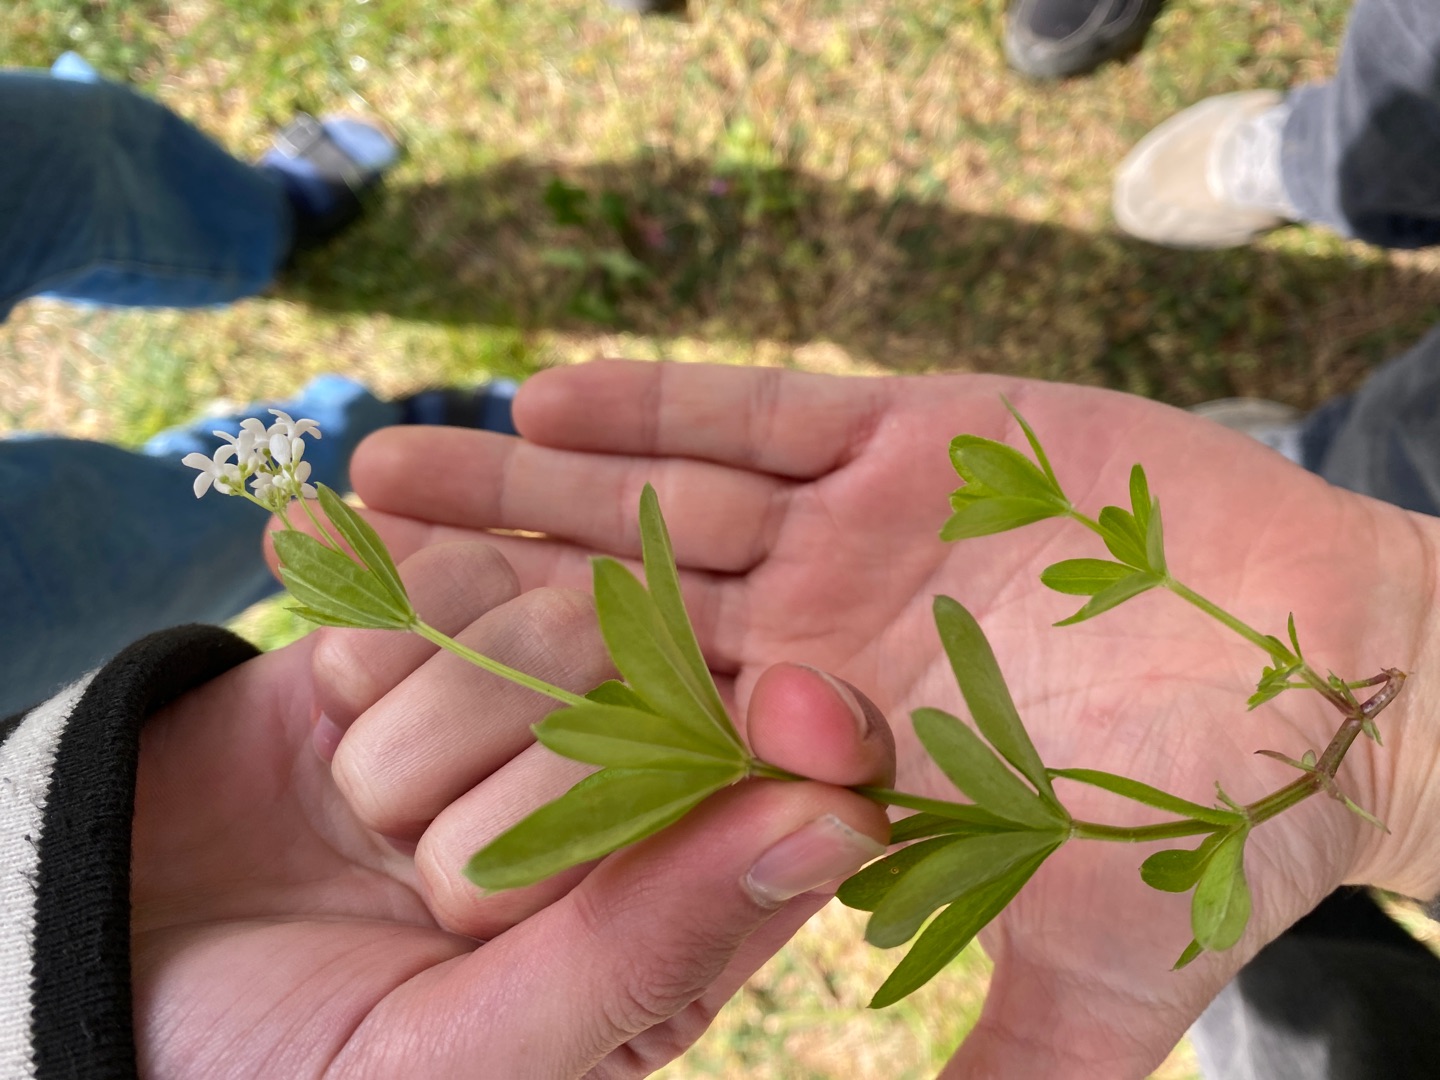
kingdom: Plantae
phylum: Tracheophyta
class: Magnoliopsida
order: Gentianales
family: Rubiaceae
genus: Galium
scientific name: Galium odoratum
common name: Skovmærke
